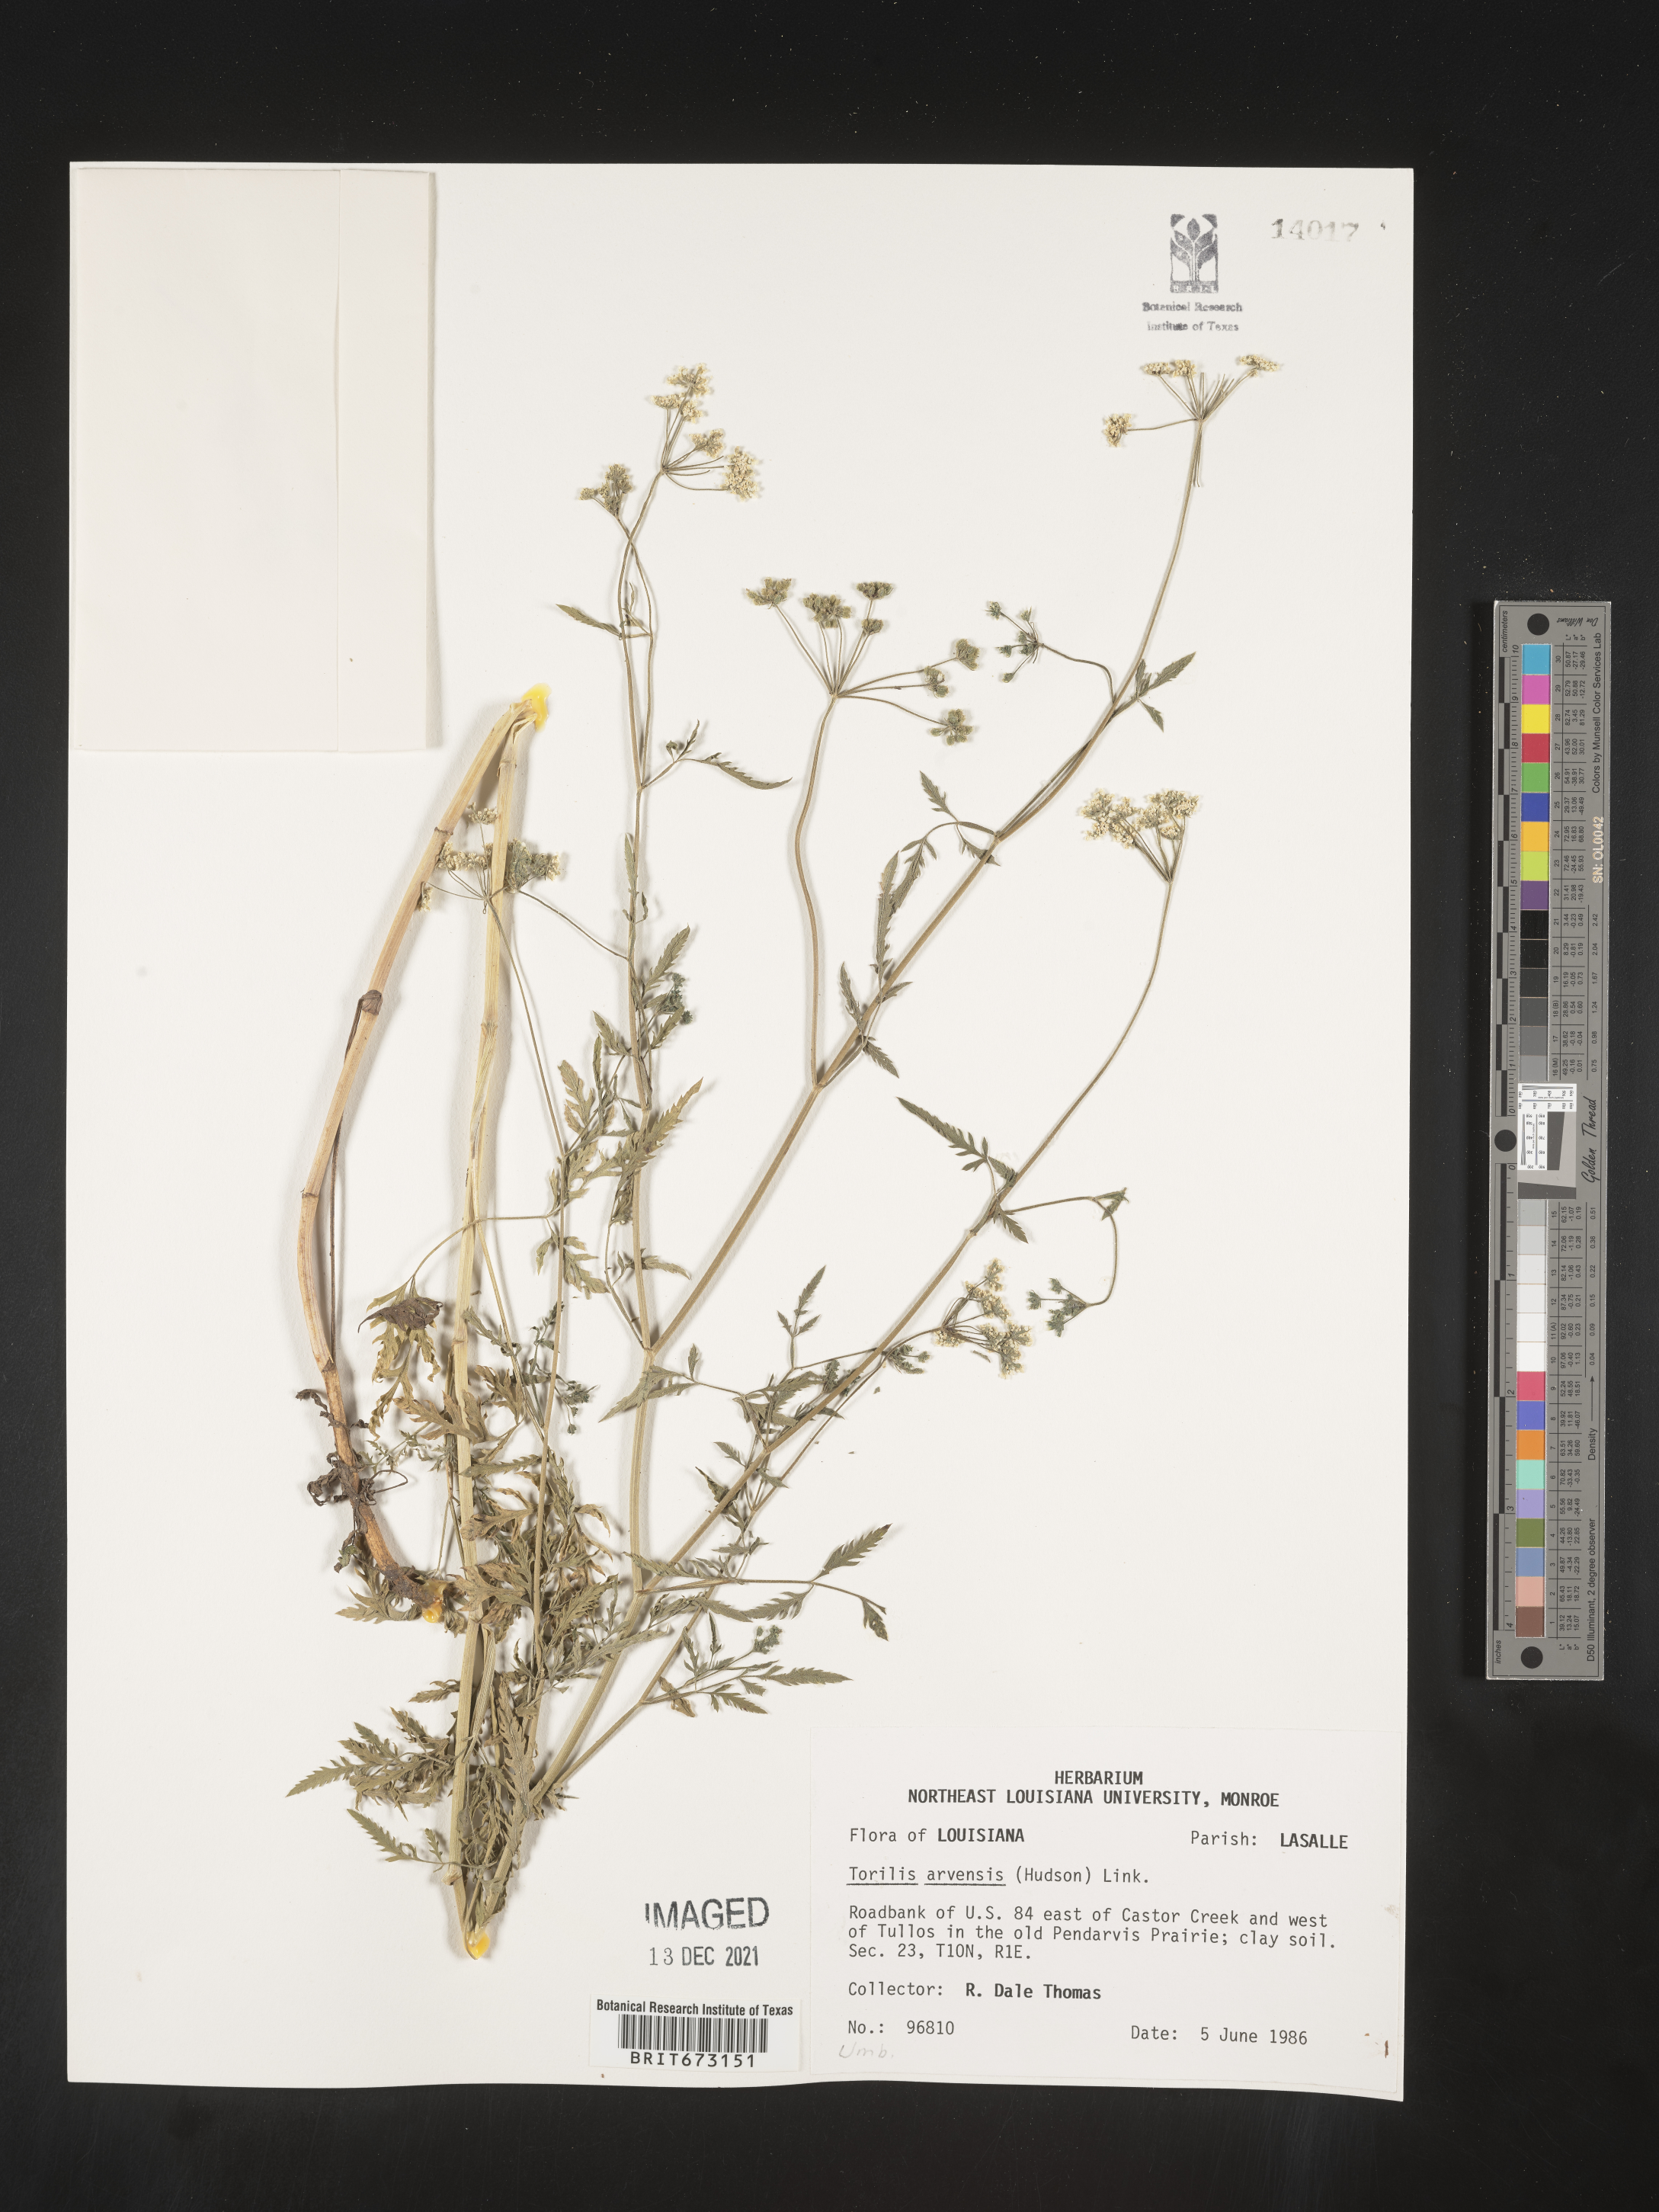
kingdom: Plantae
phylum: Tracheophyta
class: Magnoliopsida
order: Apiales
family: Apiaceae
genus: Torilis
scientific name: Torilis arvensis
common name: Spreading hedge-parsley
